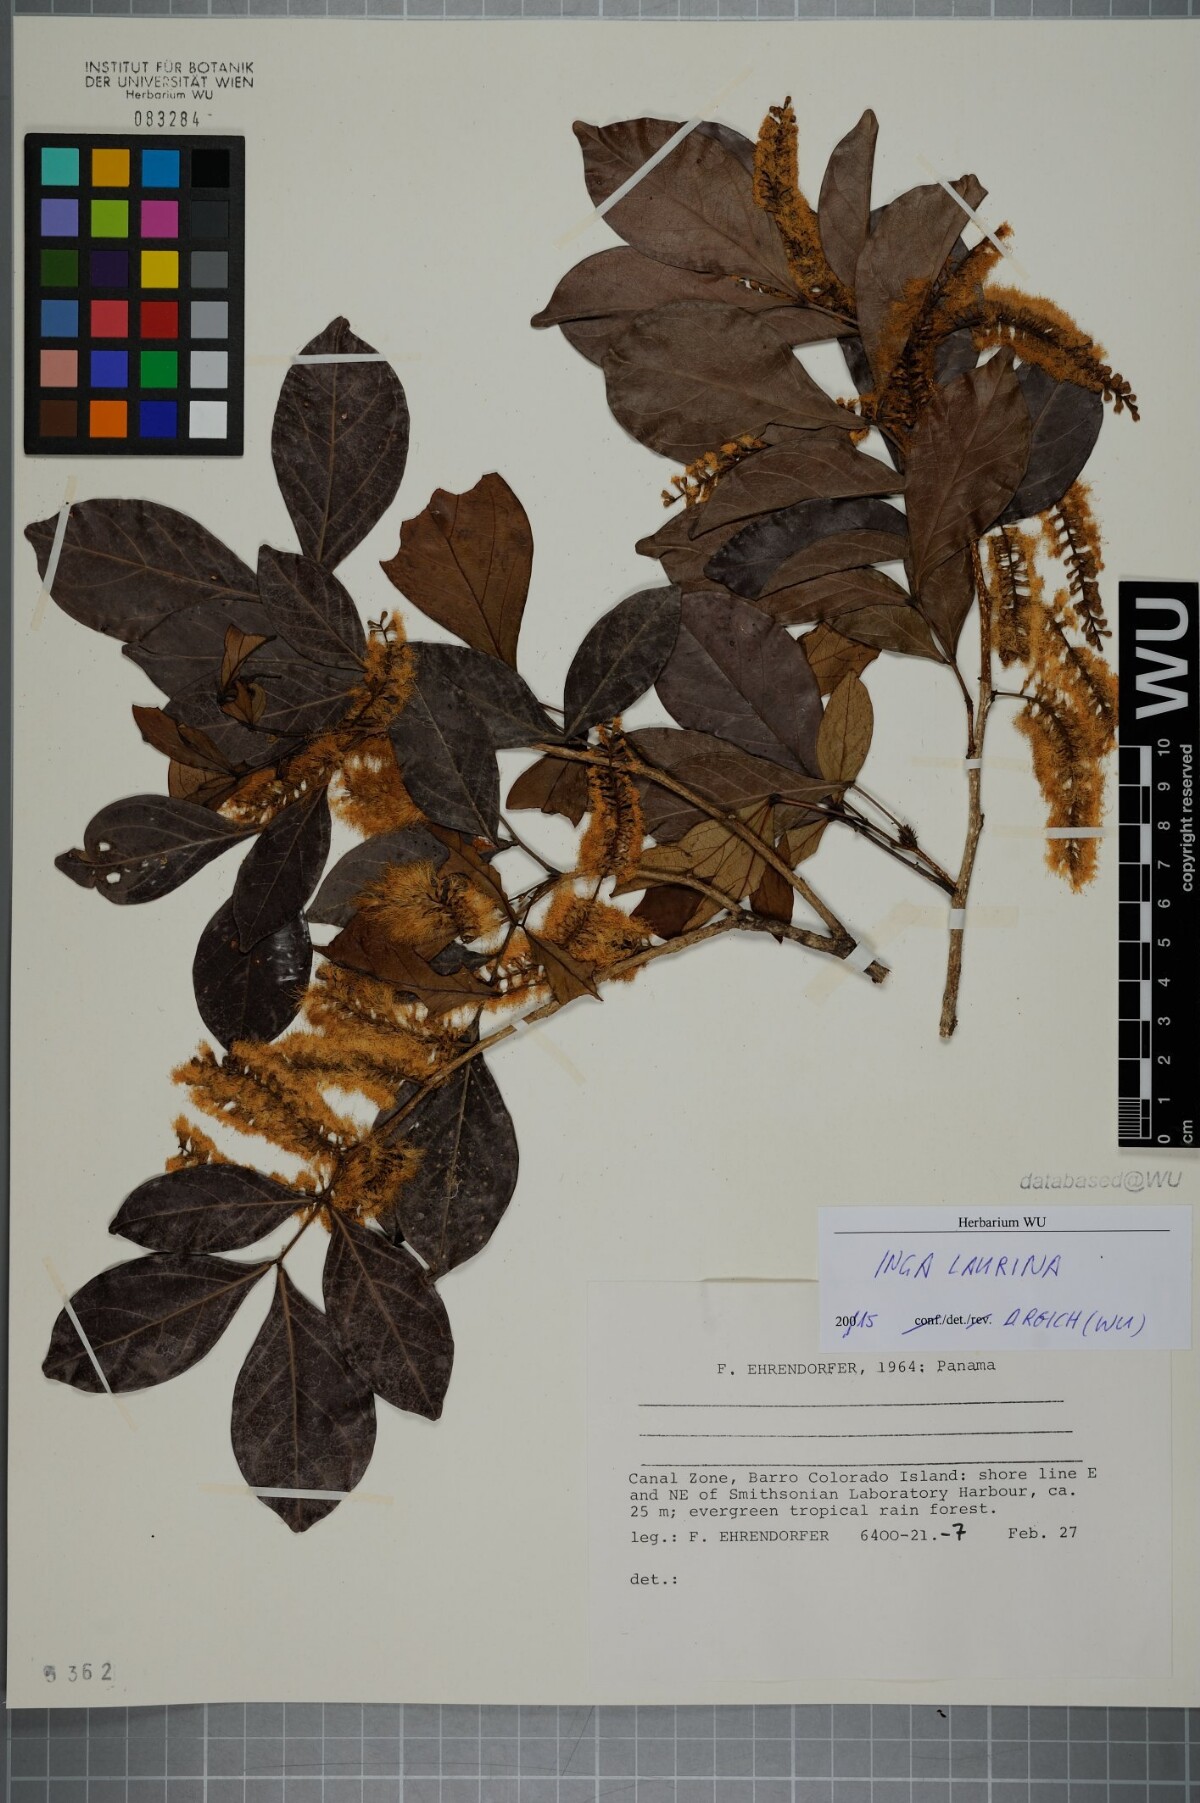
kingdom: Plantae
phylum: Tracheophyta
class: Magnoliopsida
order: Fabales
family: Fabaceae
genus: Inga
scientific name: Inga laurina
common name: Red wood
